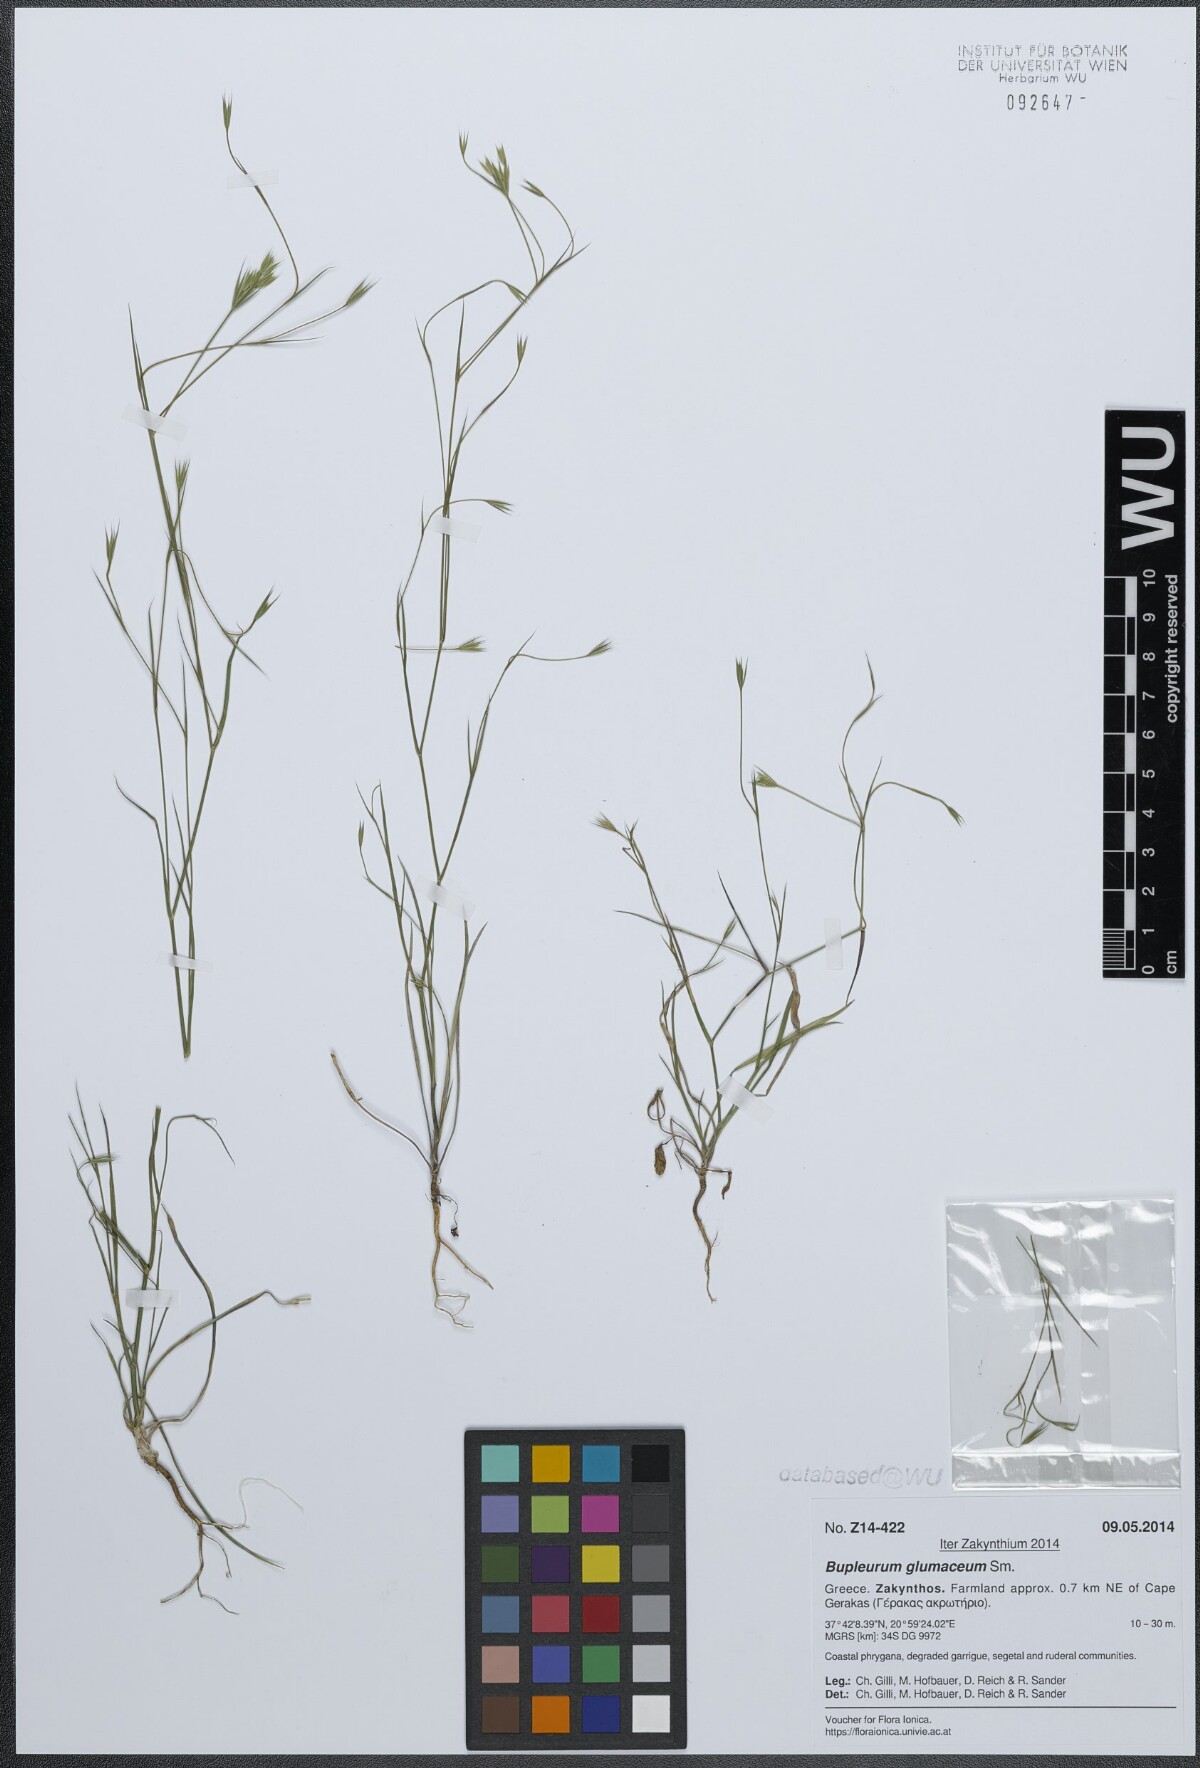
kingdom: Plantae
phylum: Tracheophyta
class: Magnoliopsida
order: Apiales
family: Apiaceae
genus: Bupleurum
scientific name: Bupleurum glumaceum
